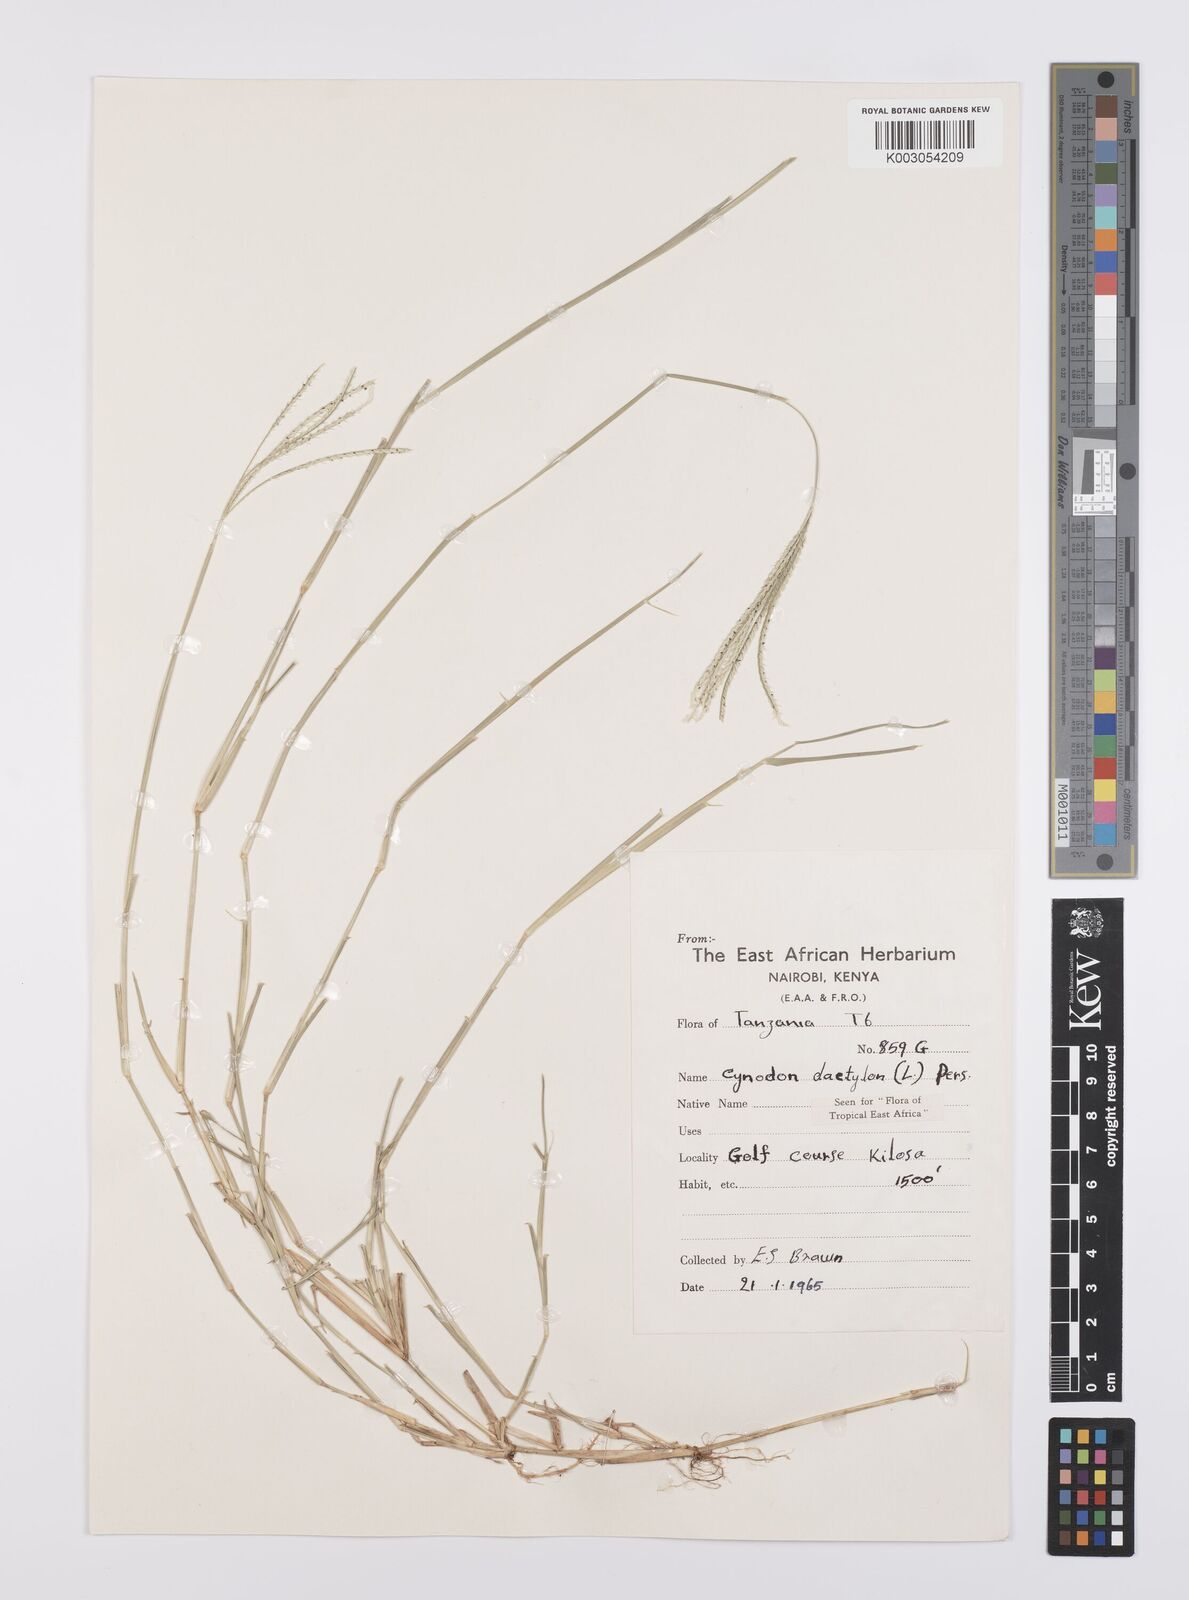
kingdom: Plantae
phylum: Tracheophyta
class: Liliopsida
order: Poales
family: Poaceae
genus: Cynodon
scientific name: Cynodon dactylon
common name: Bermuda grass
